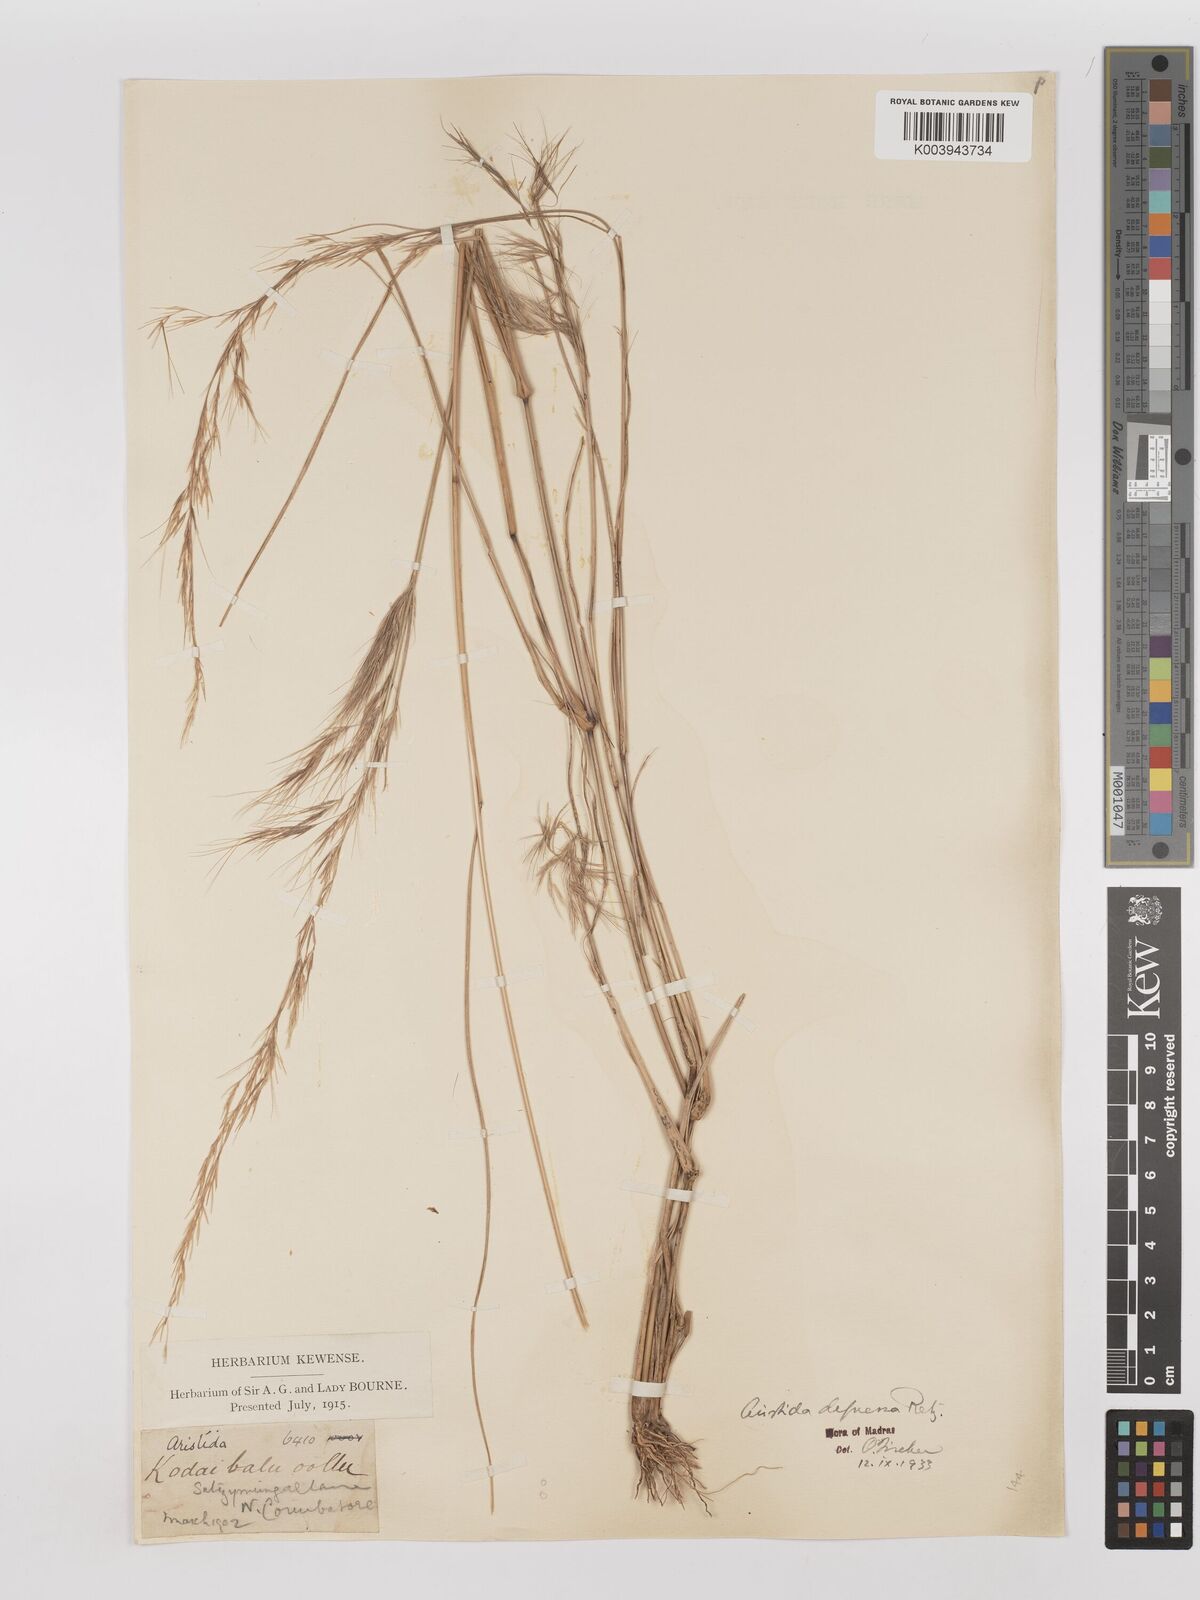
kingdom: Plantae
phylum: Tracheophyta
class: Liliopsida
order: Poales
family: Poaceae
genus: Aristida
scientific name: Aristida adscensionis
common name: Sixweeks threeawn
